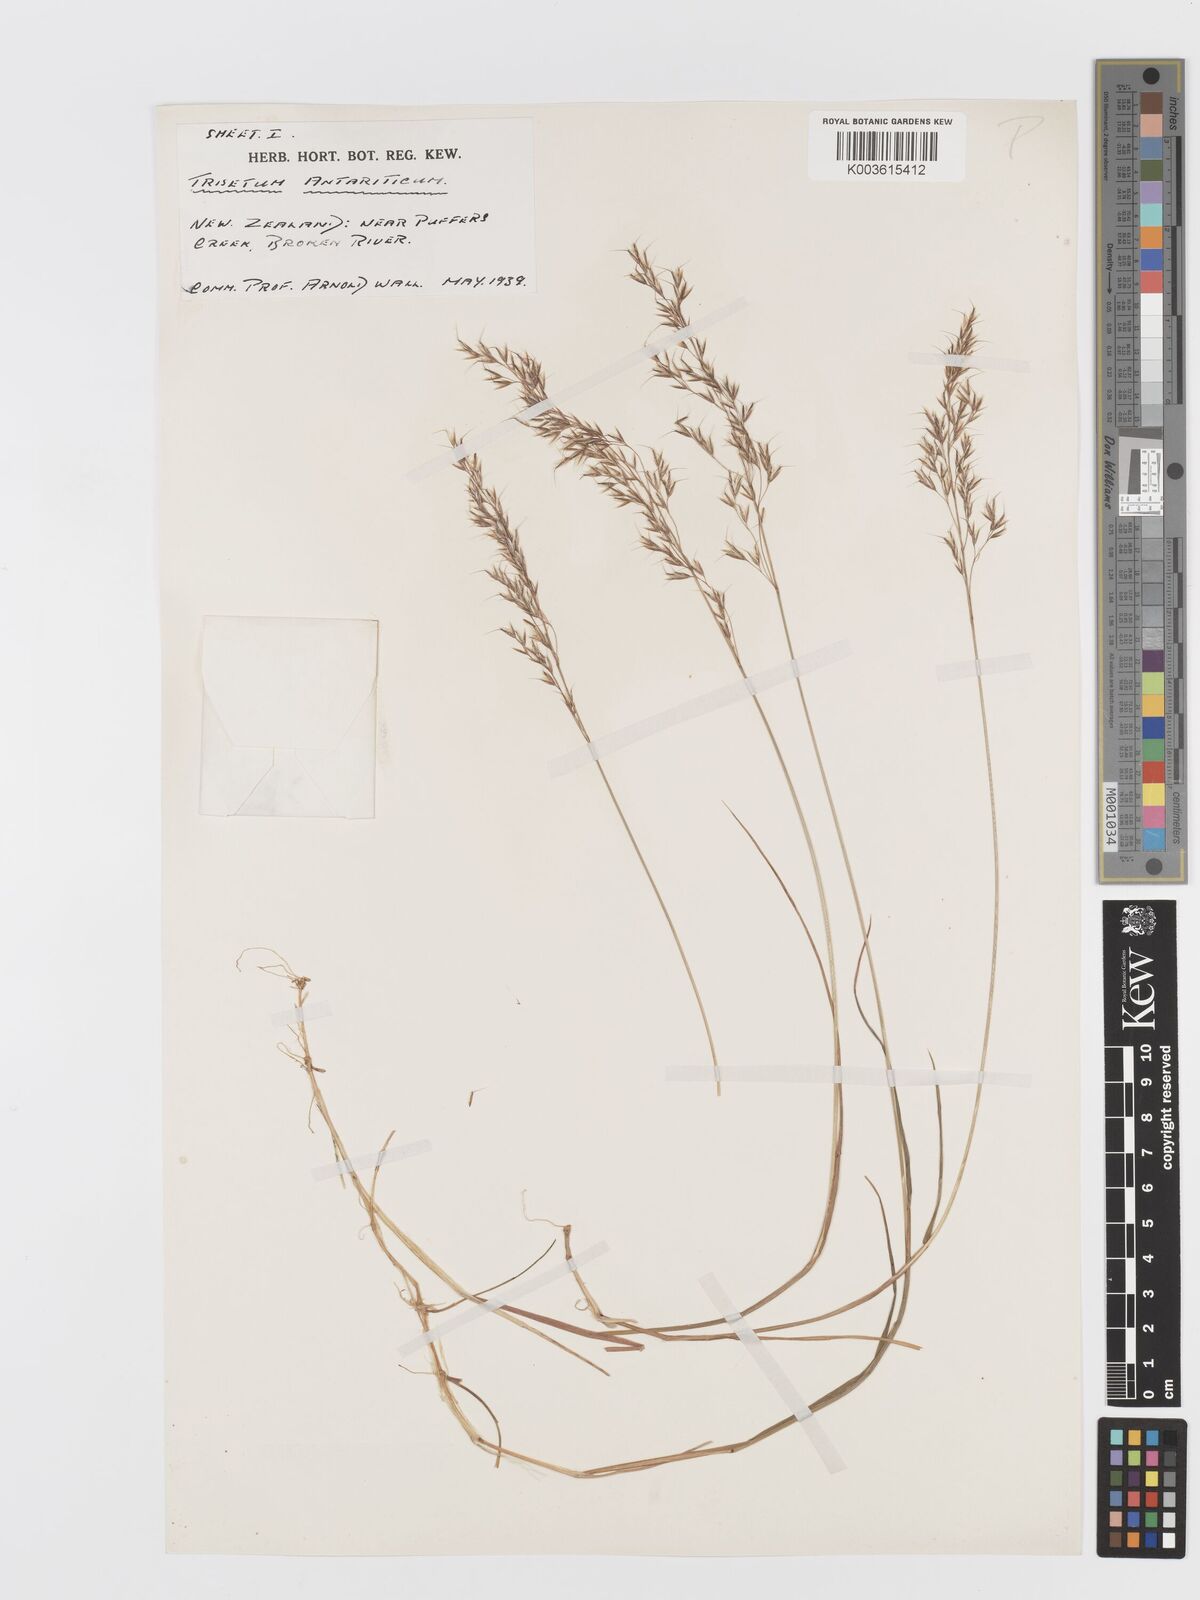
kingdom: Plantae
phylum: Tracheophyta
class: Liliopsida
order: Poales
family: Poaceae
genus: Koeleria
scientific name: Koeleria antarctica
